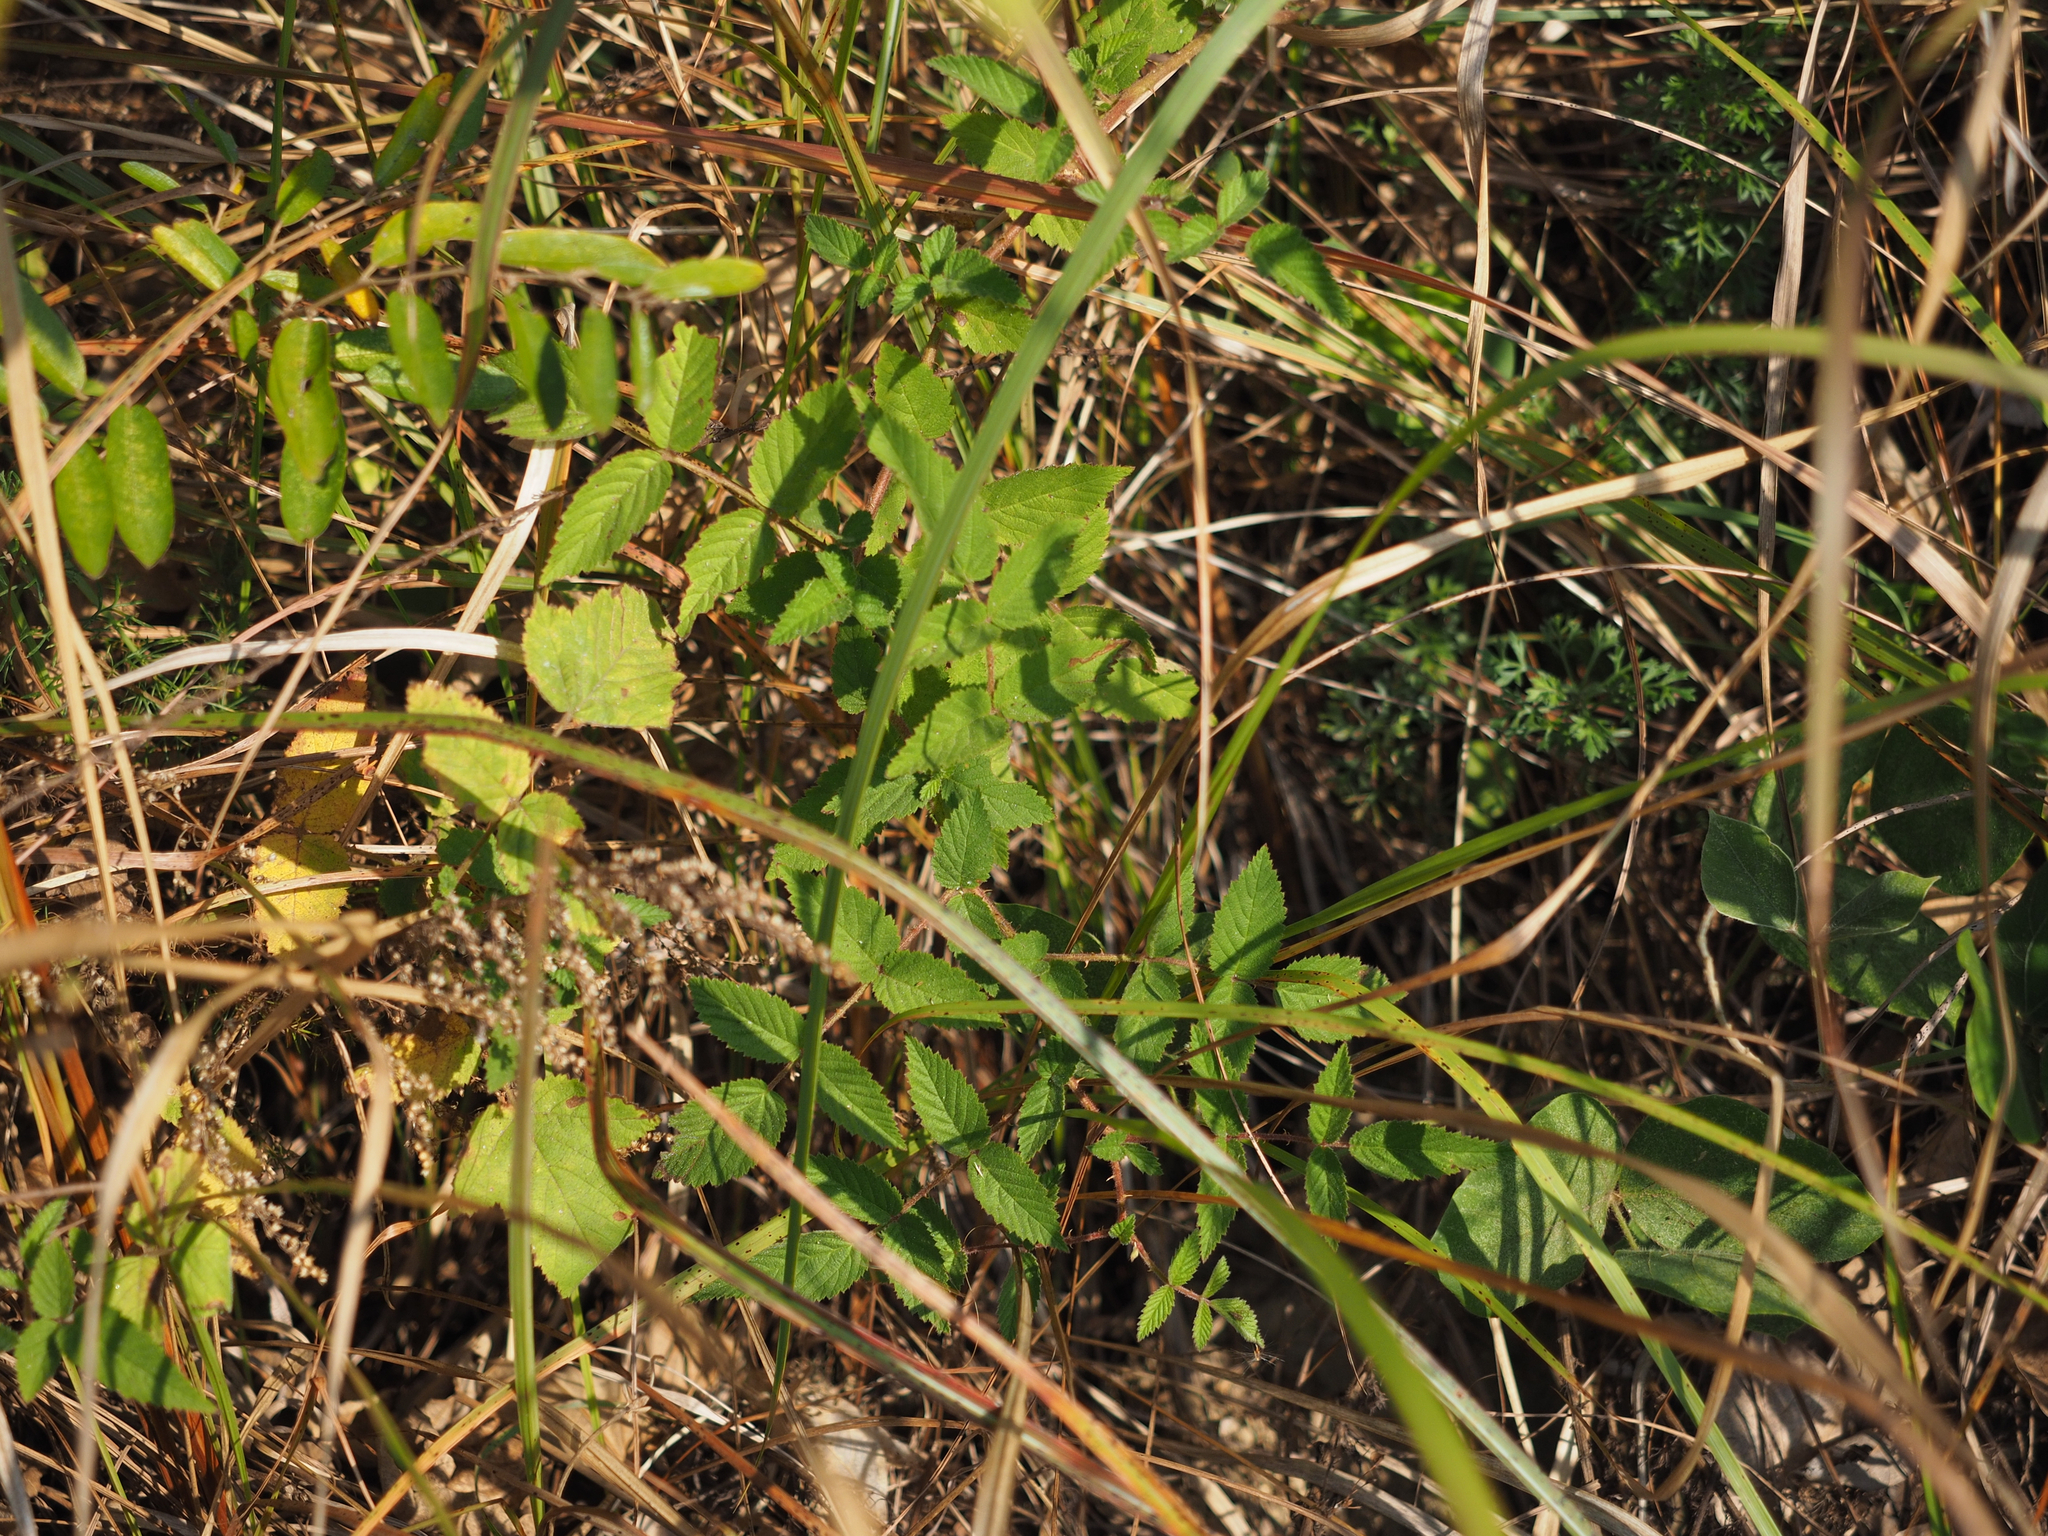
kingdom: Plantae
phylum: Tracheophyta
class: Magnoliopsida
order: Rosales
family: Rosaceae
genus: Rubus
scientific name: Rubus fraxinifolius
